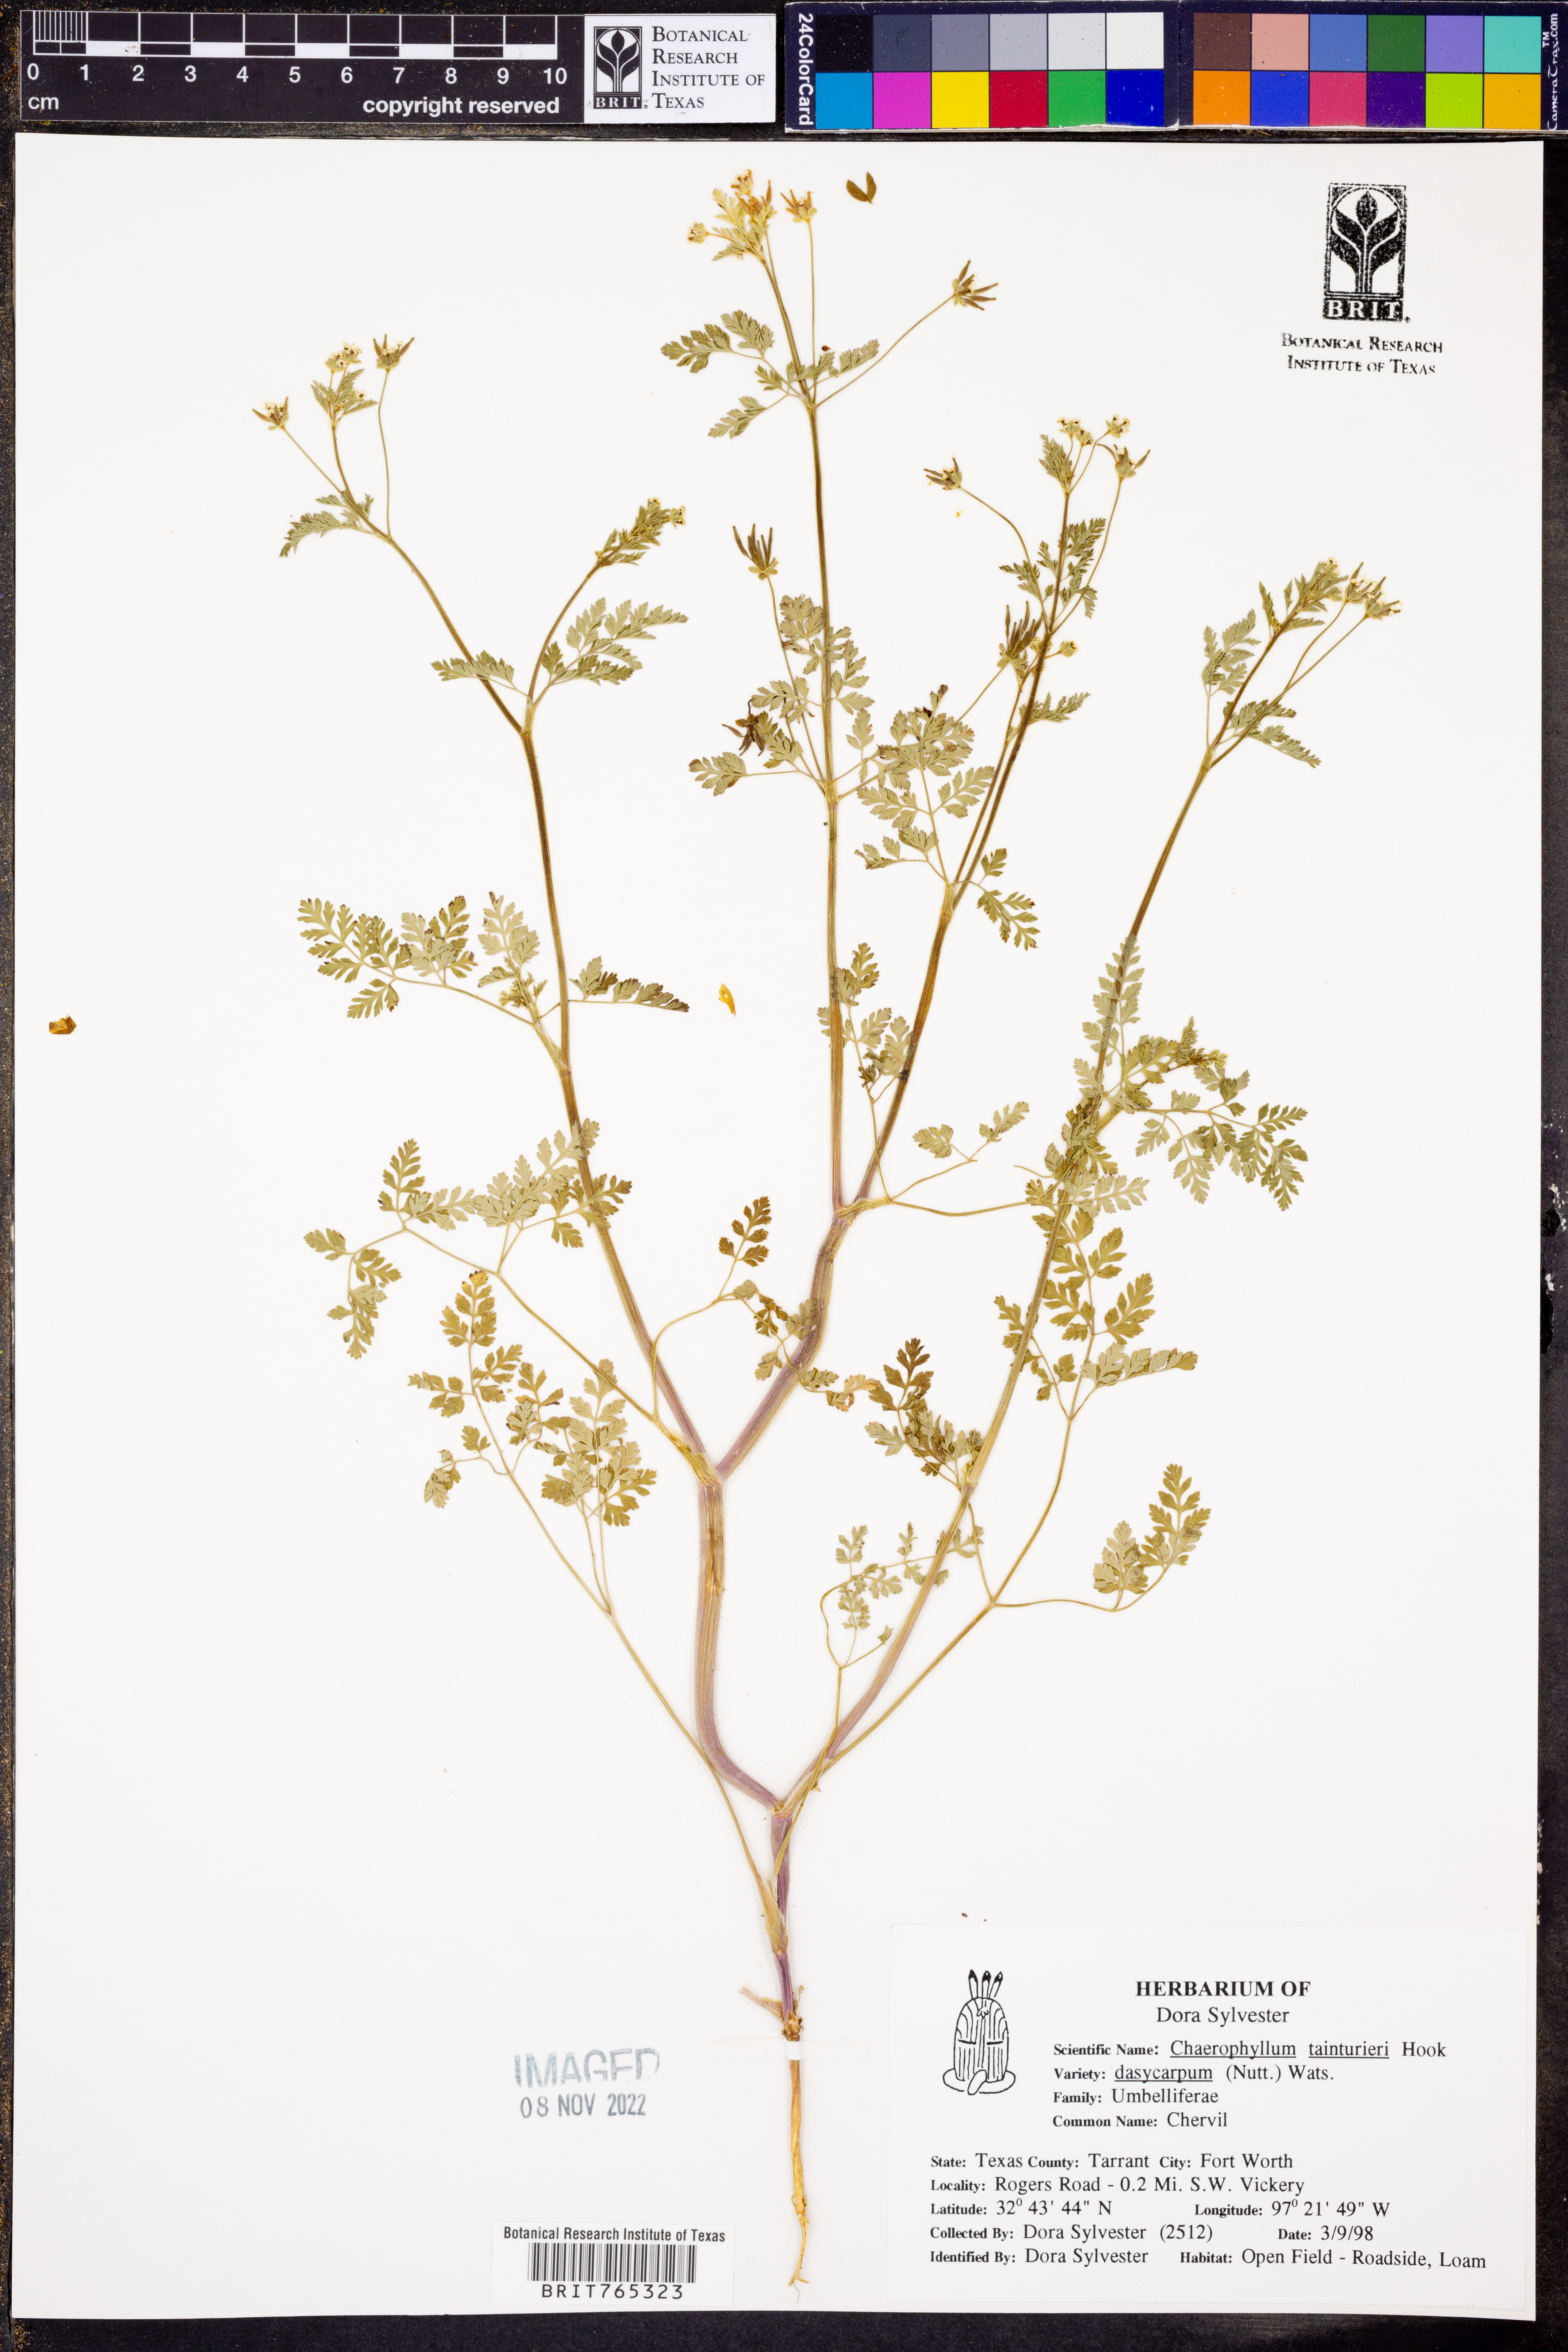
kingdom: Plantae
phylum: Tracheophyta
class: Magnoliopsida
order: Apiales
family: Apiaceae
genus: Chaerophyllum
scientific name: Chaerophyllum tainturieri
